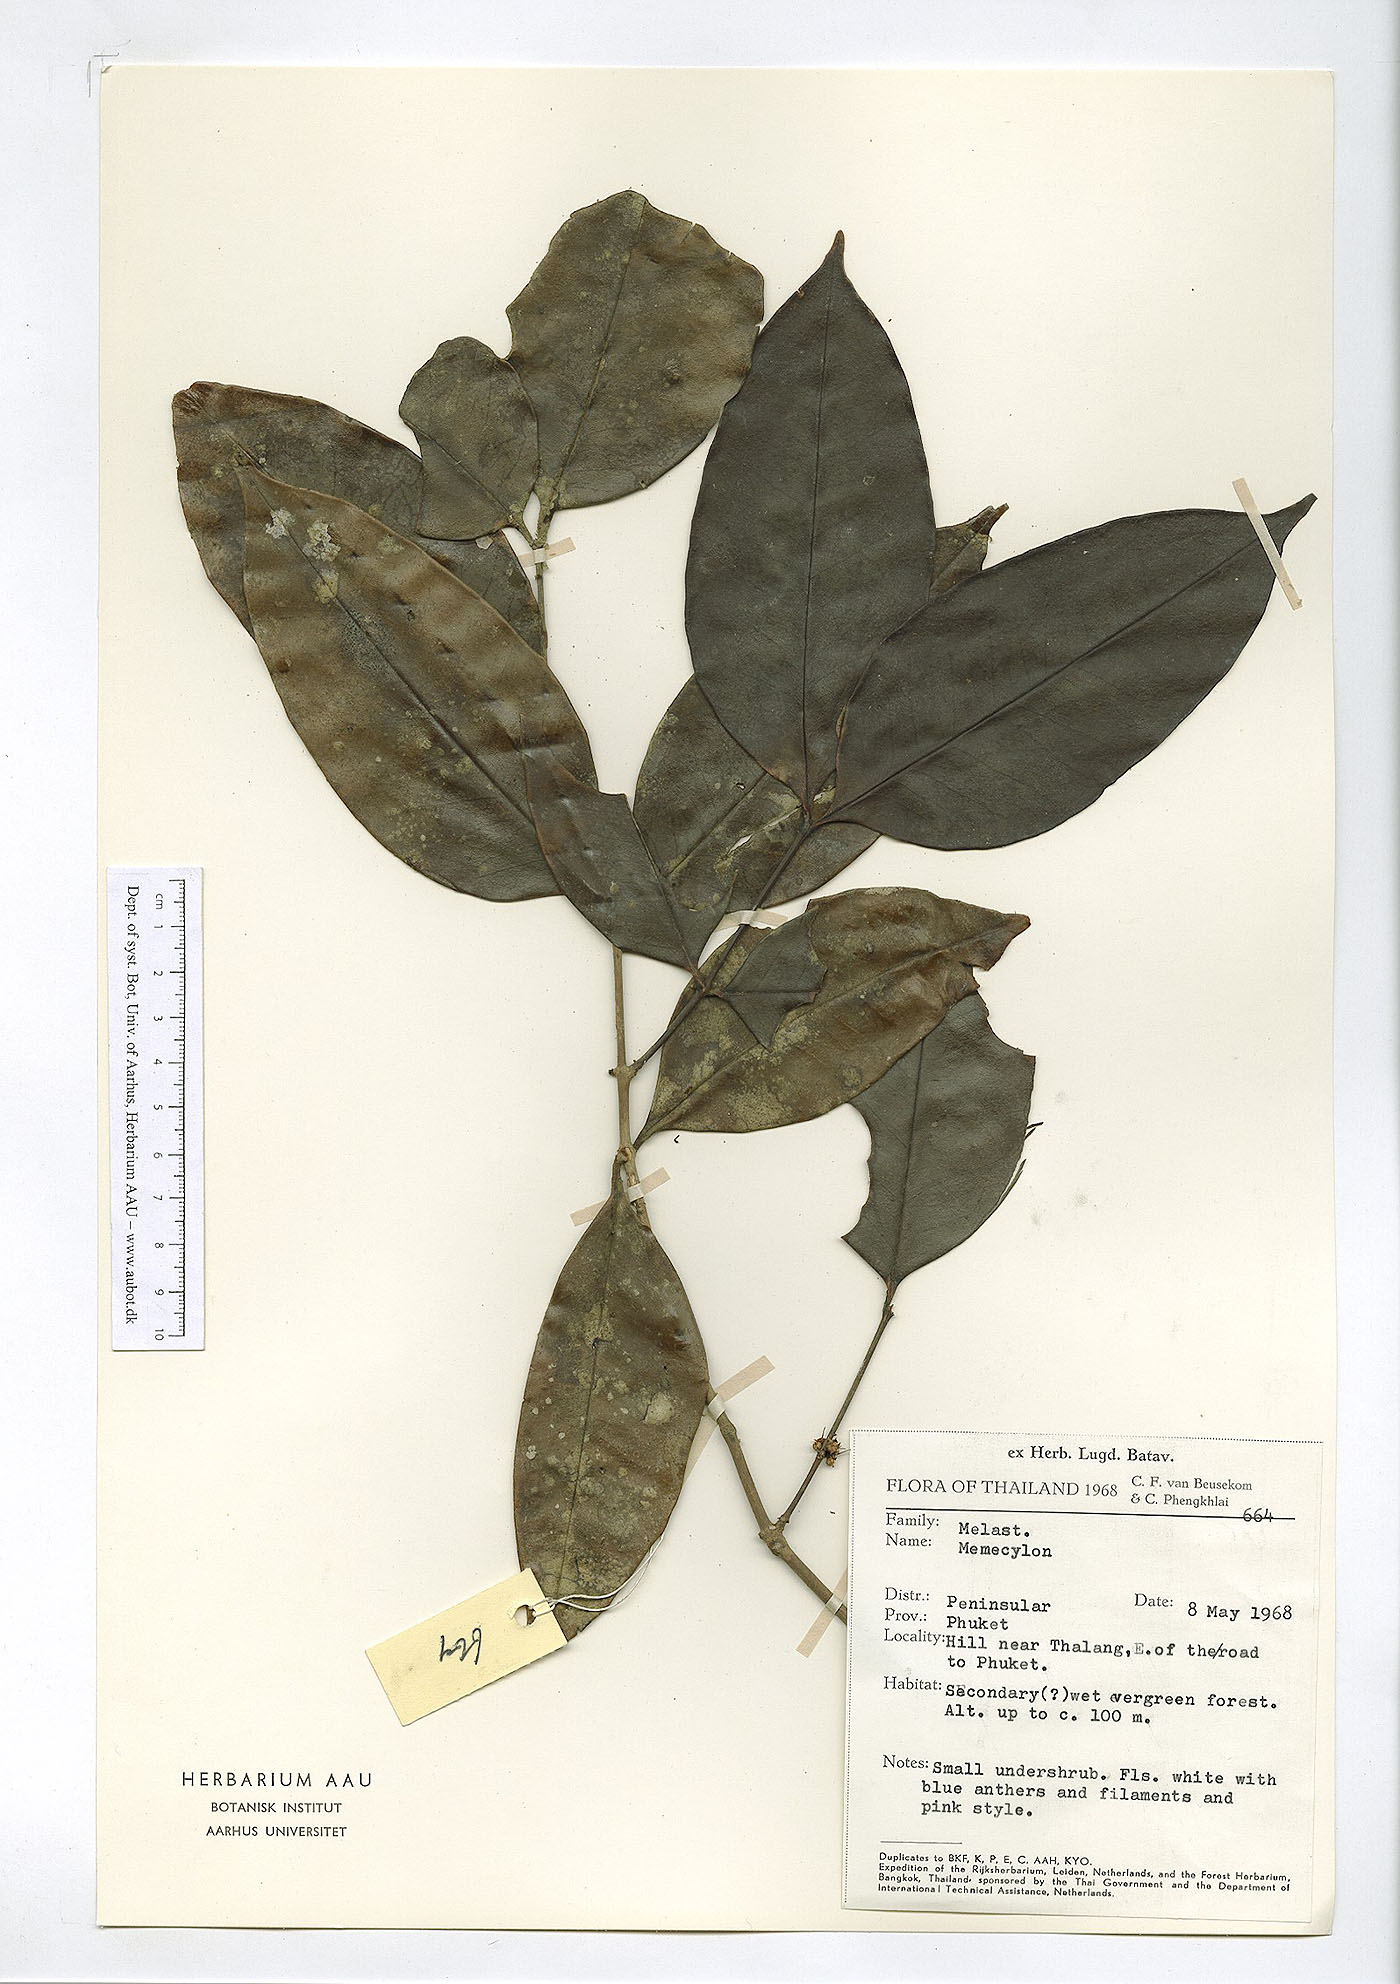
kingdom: Plantae
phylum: Tracheophyta
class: Magnoliopsida
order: Myrtales
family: Melastomataceae
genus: Memecylon
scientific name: Memecylon lilacinum
